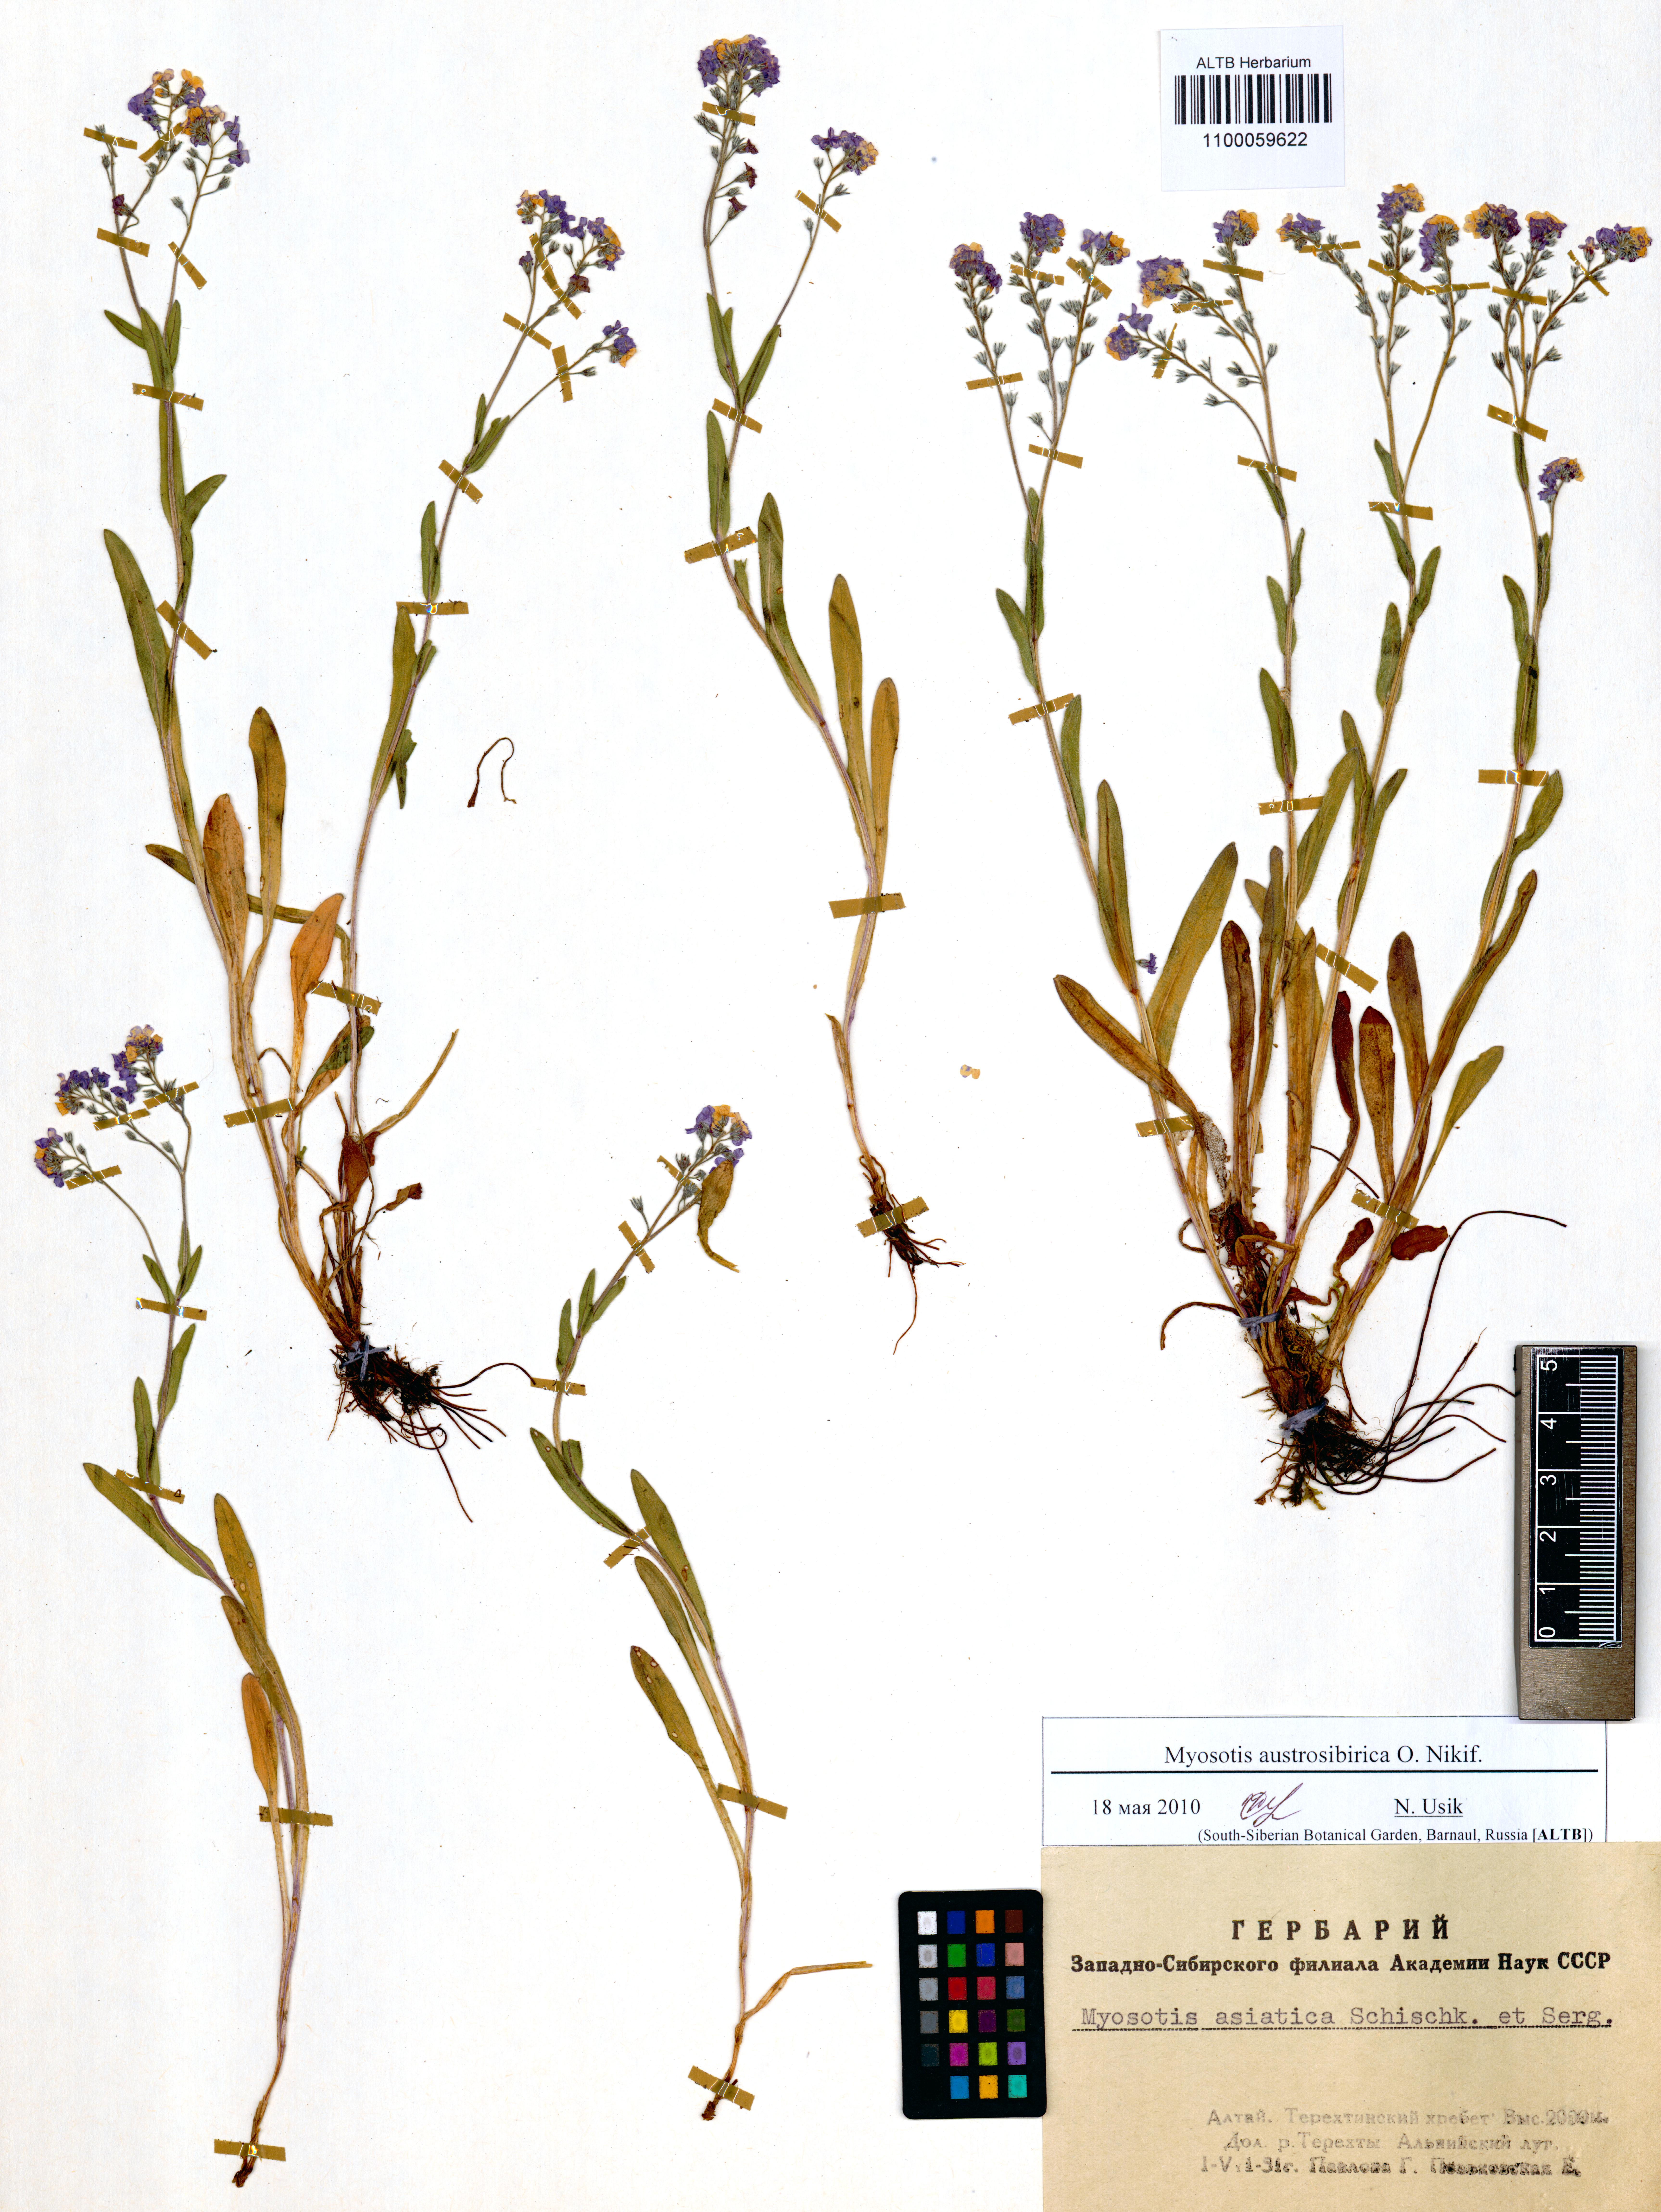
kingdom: Plantae
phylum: Tracheophyta
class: Magnoliopsida
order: Boraginales
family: Boraginaceae
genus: Myosotis
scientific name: Myosotis austrosibirica
